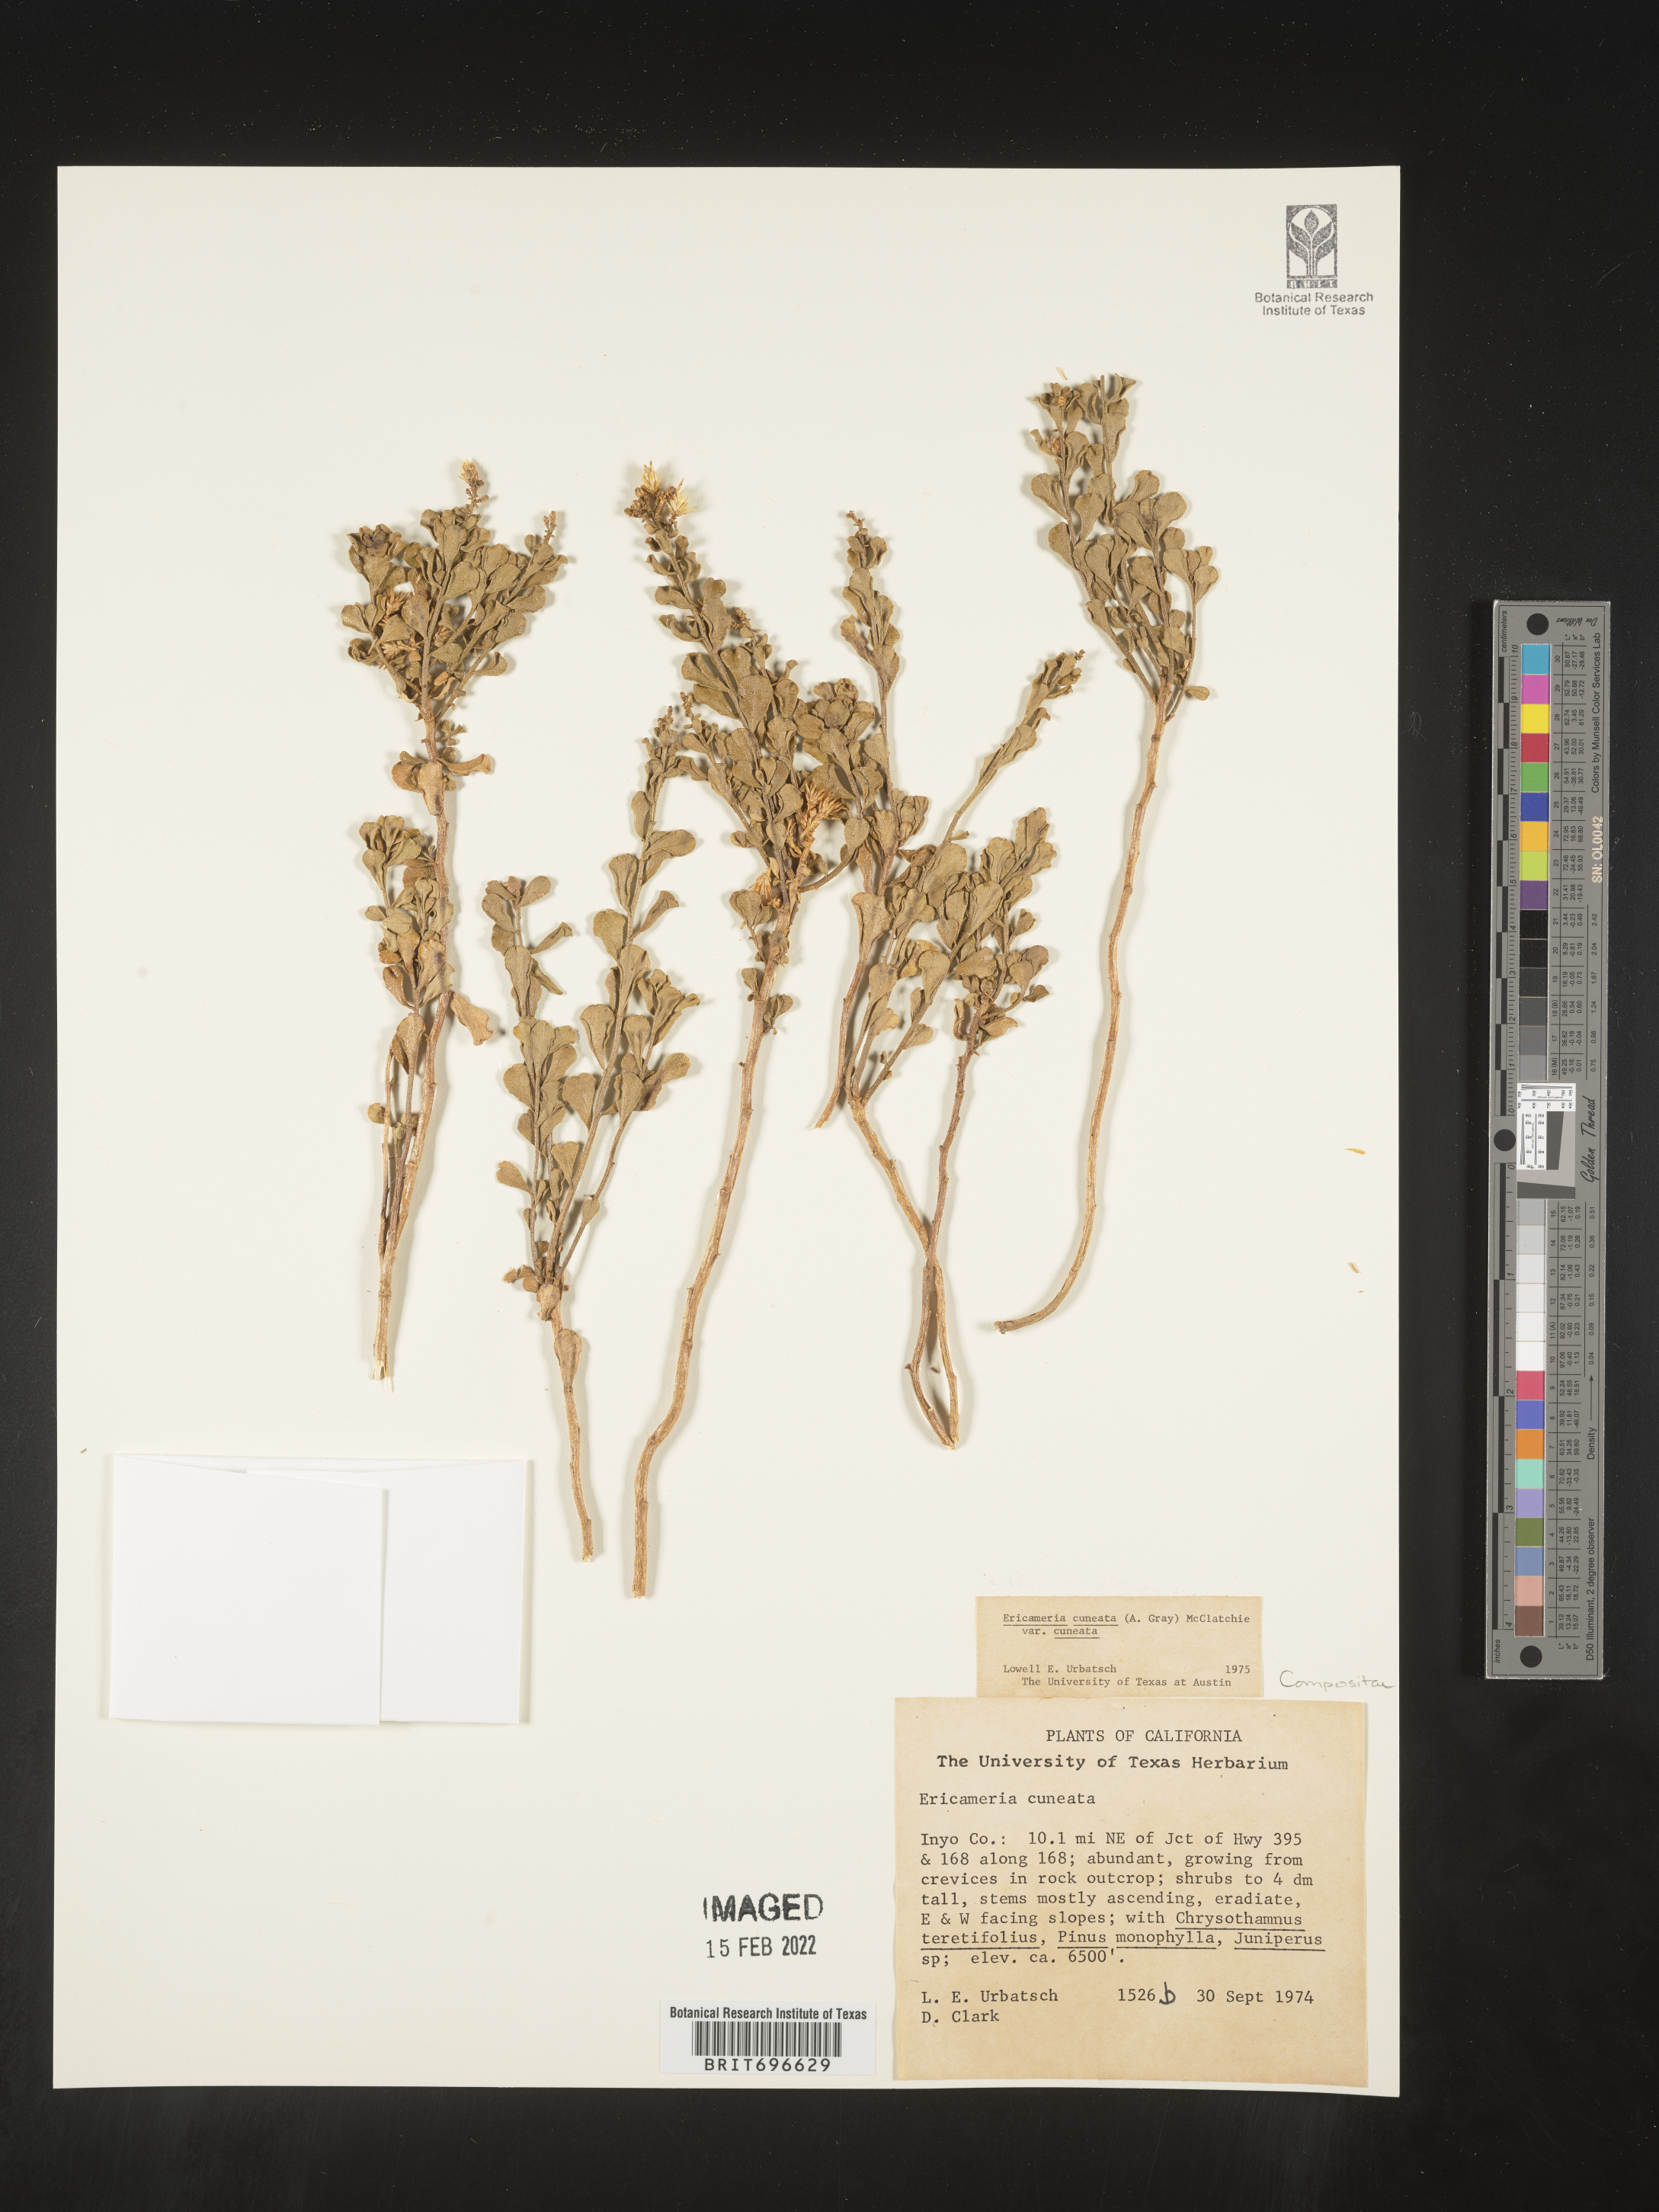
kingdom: Plantae
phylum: Tracheophyta
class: Magnoliopsida
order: Asterales
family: Asteraceae
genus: Ericameria
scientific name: Ericameria cuneata
